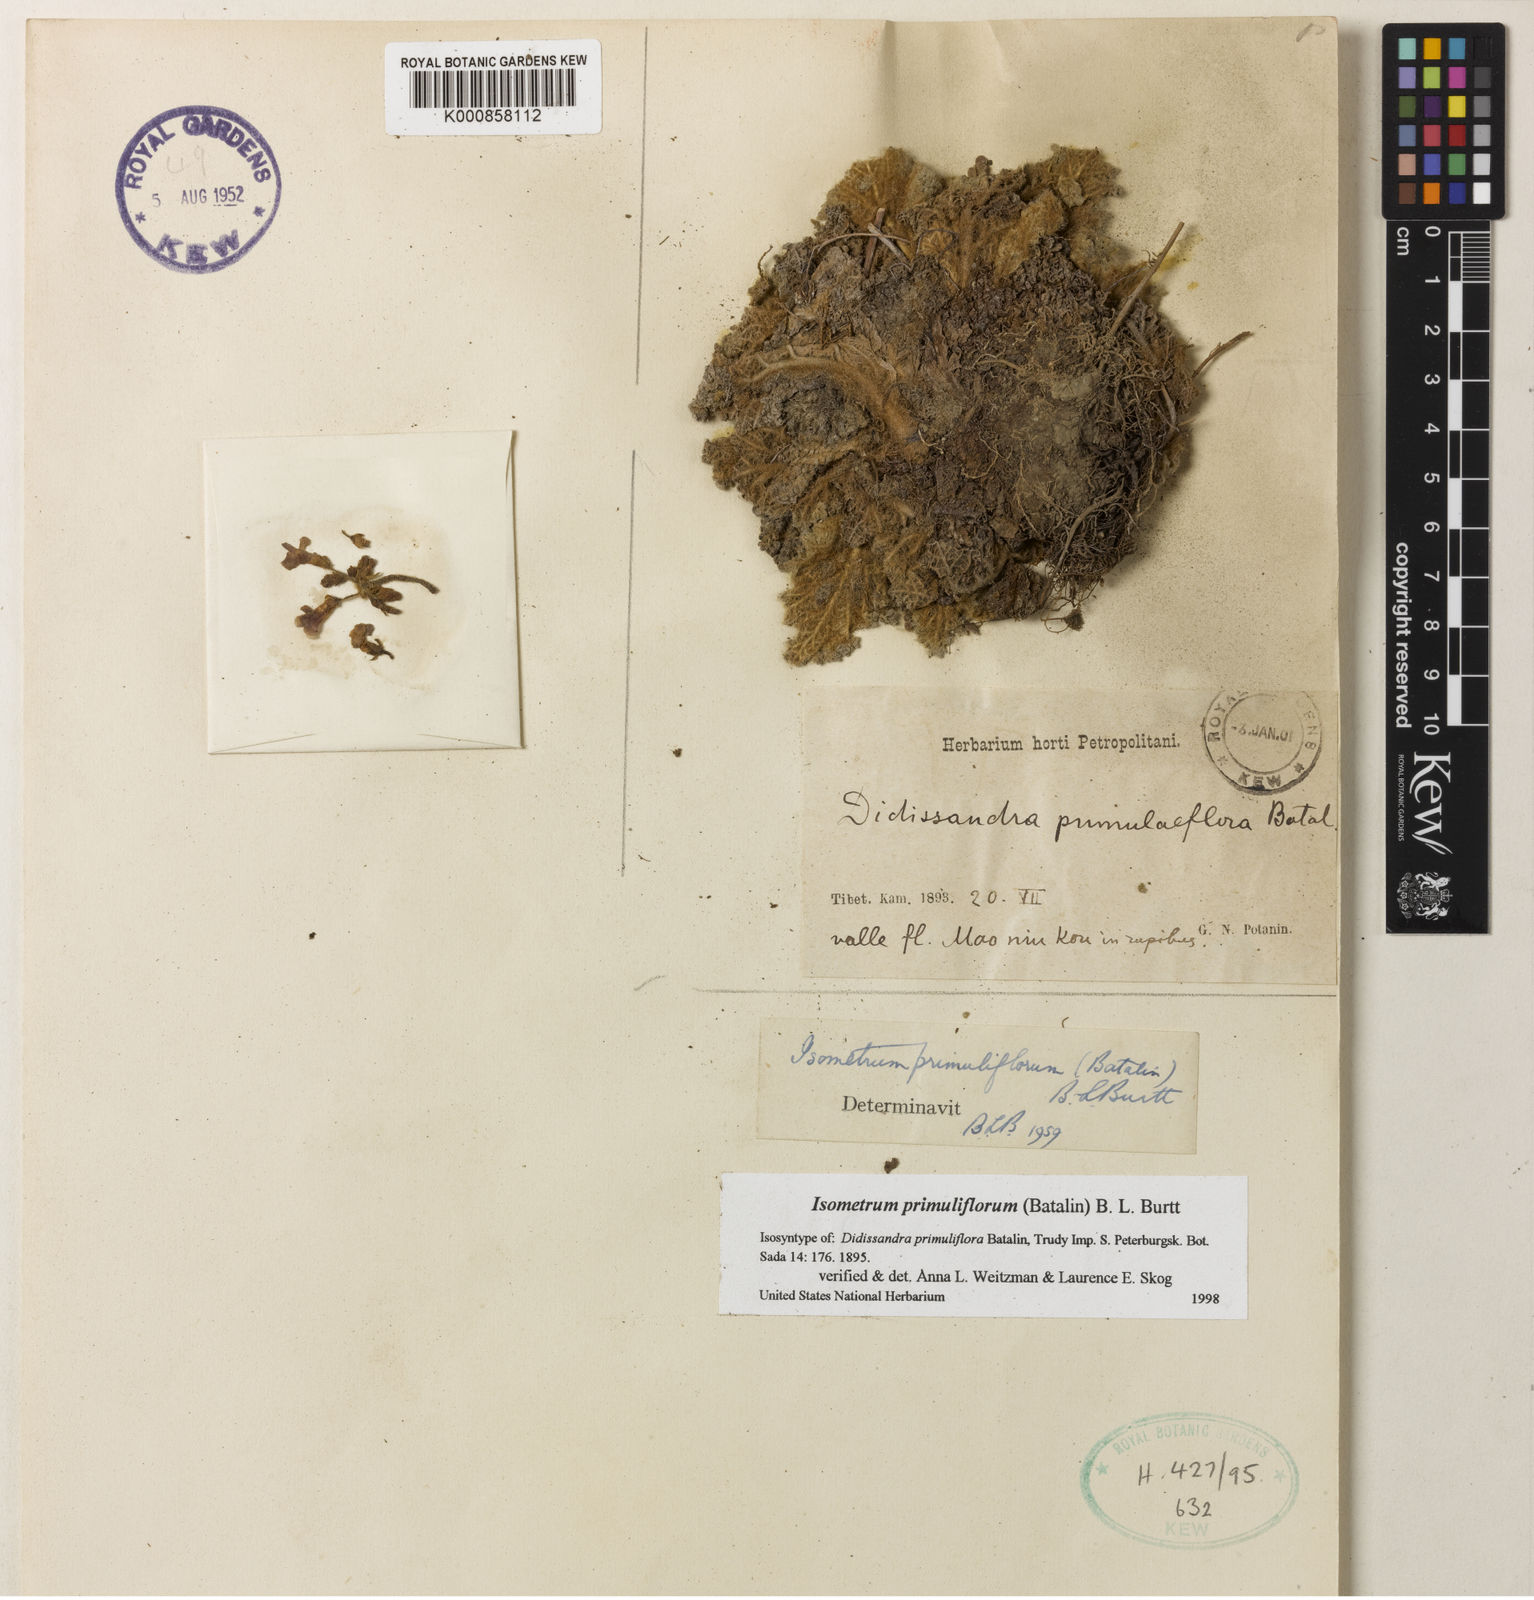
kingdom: Plantae
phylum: Tracheophyta
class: Magnoliopsida
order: Lamiales
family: Gesneriaceae
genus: Oreocharis
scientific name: Oreocharis
